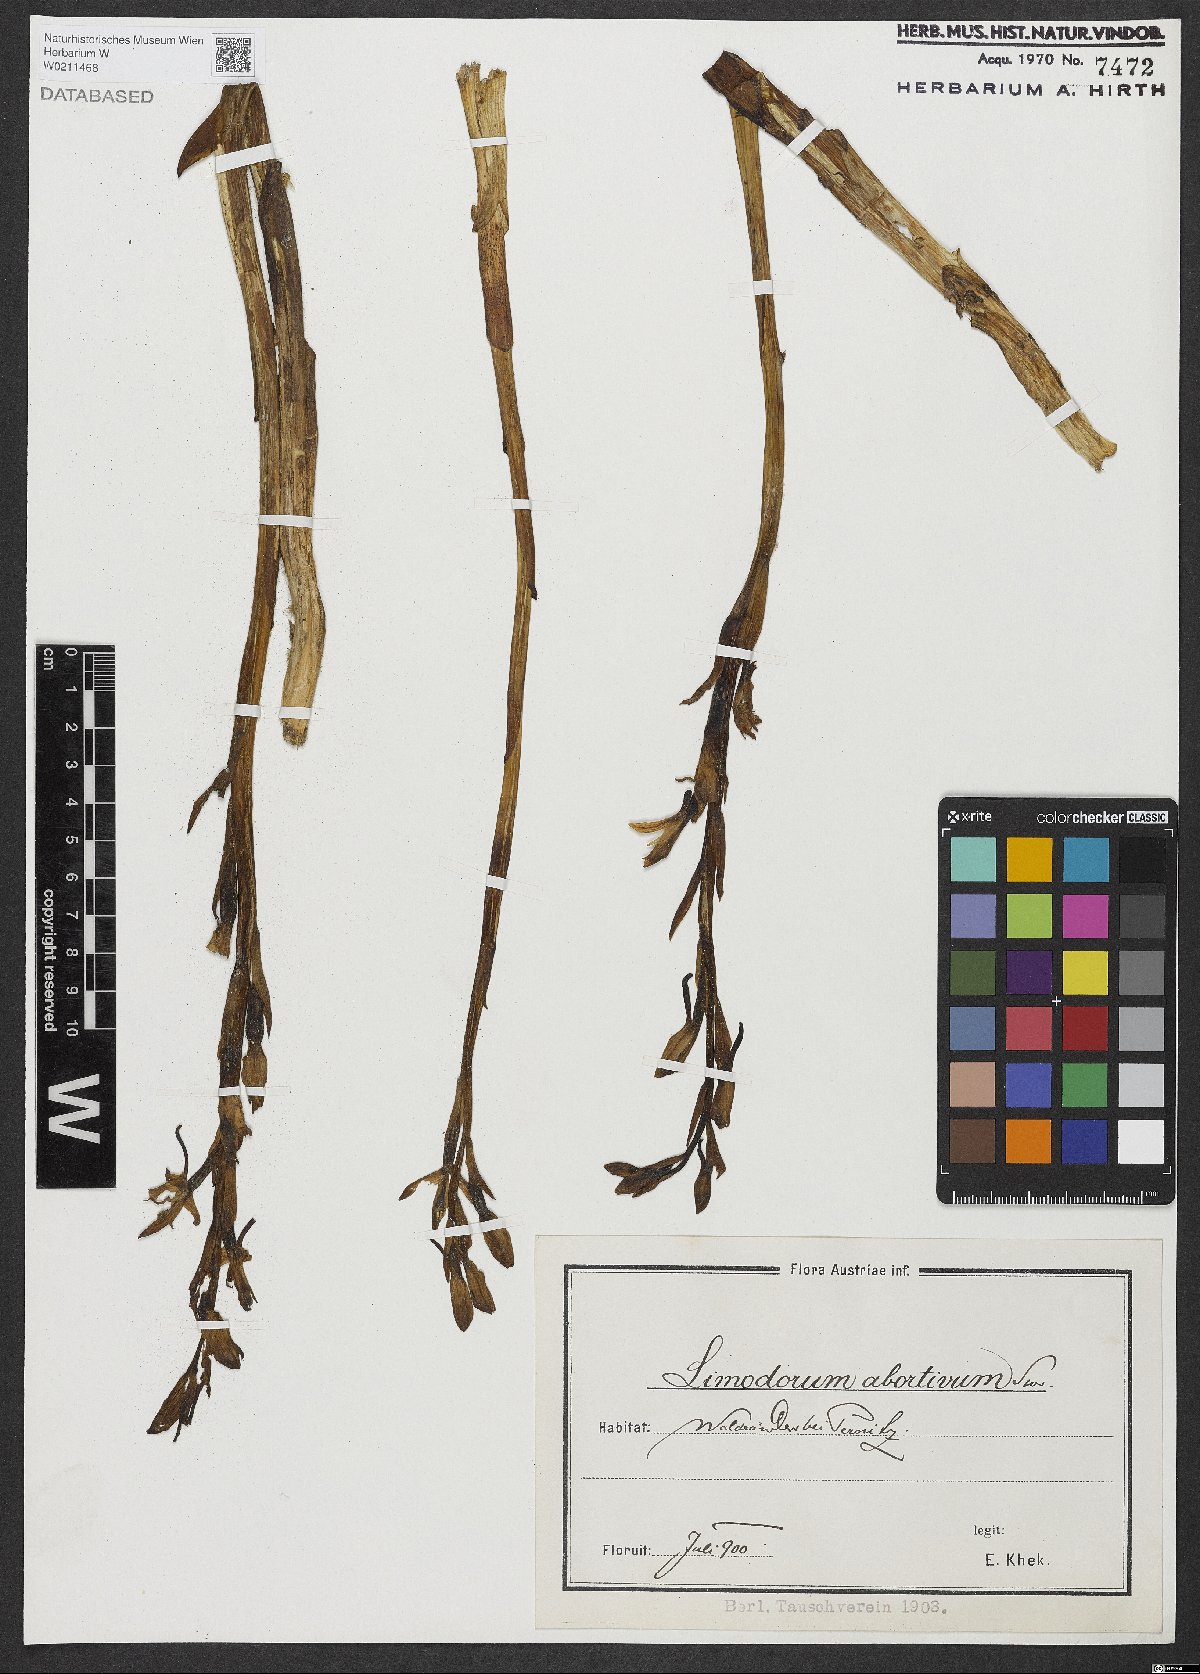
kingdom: Plantae
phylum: Tracheophyta
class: Liliopsida
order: Asparagales
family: Orchidaceae
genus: Limodorum
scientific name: Limodorum abortivum
